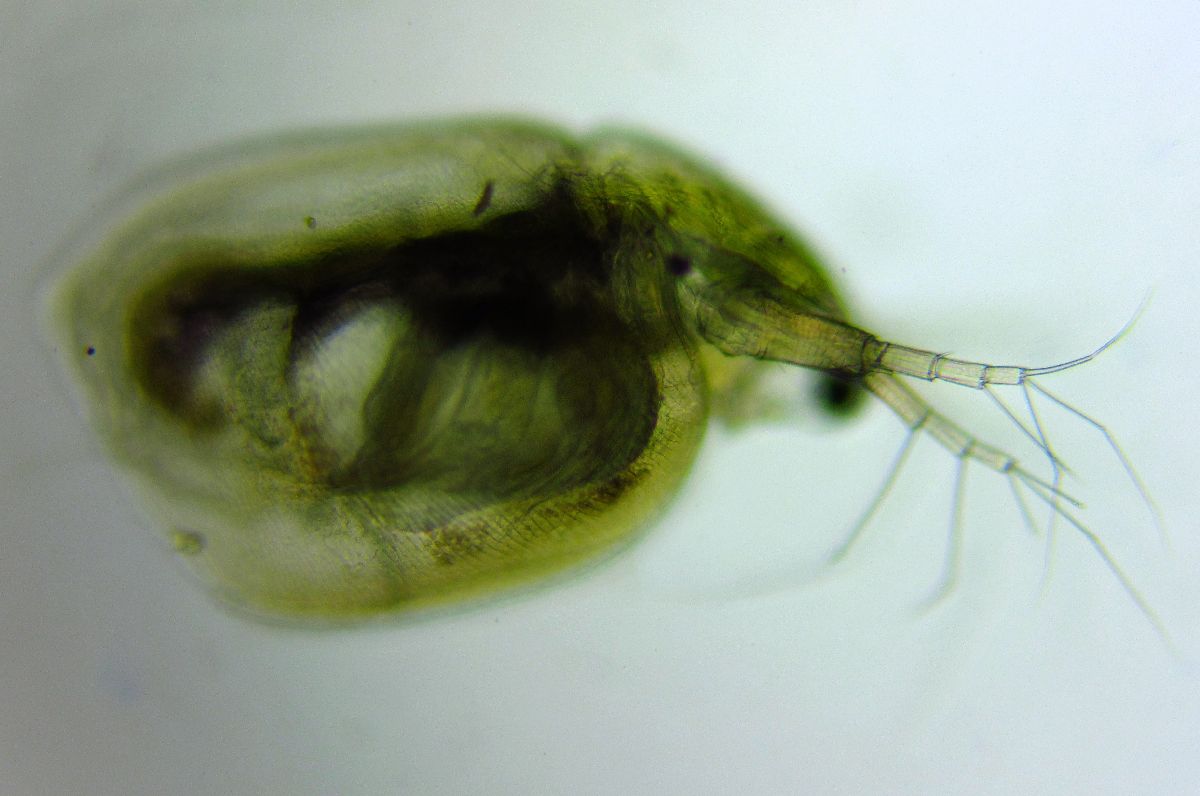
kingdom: Animalia
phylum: Arthropoda
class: Branchiopoda
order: Diplostraca
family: Daphniidae
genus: Simocephalus
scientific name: Simocephalus vetulus
